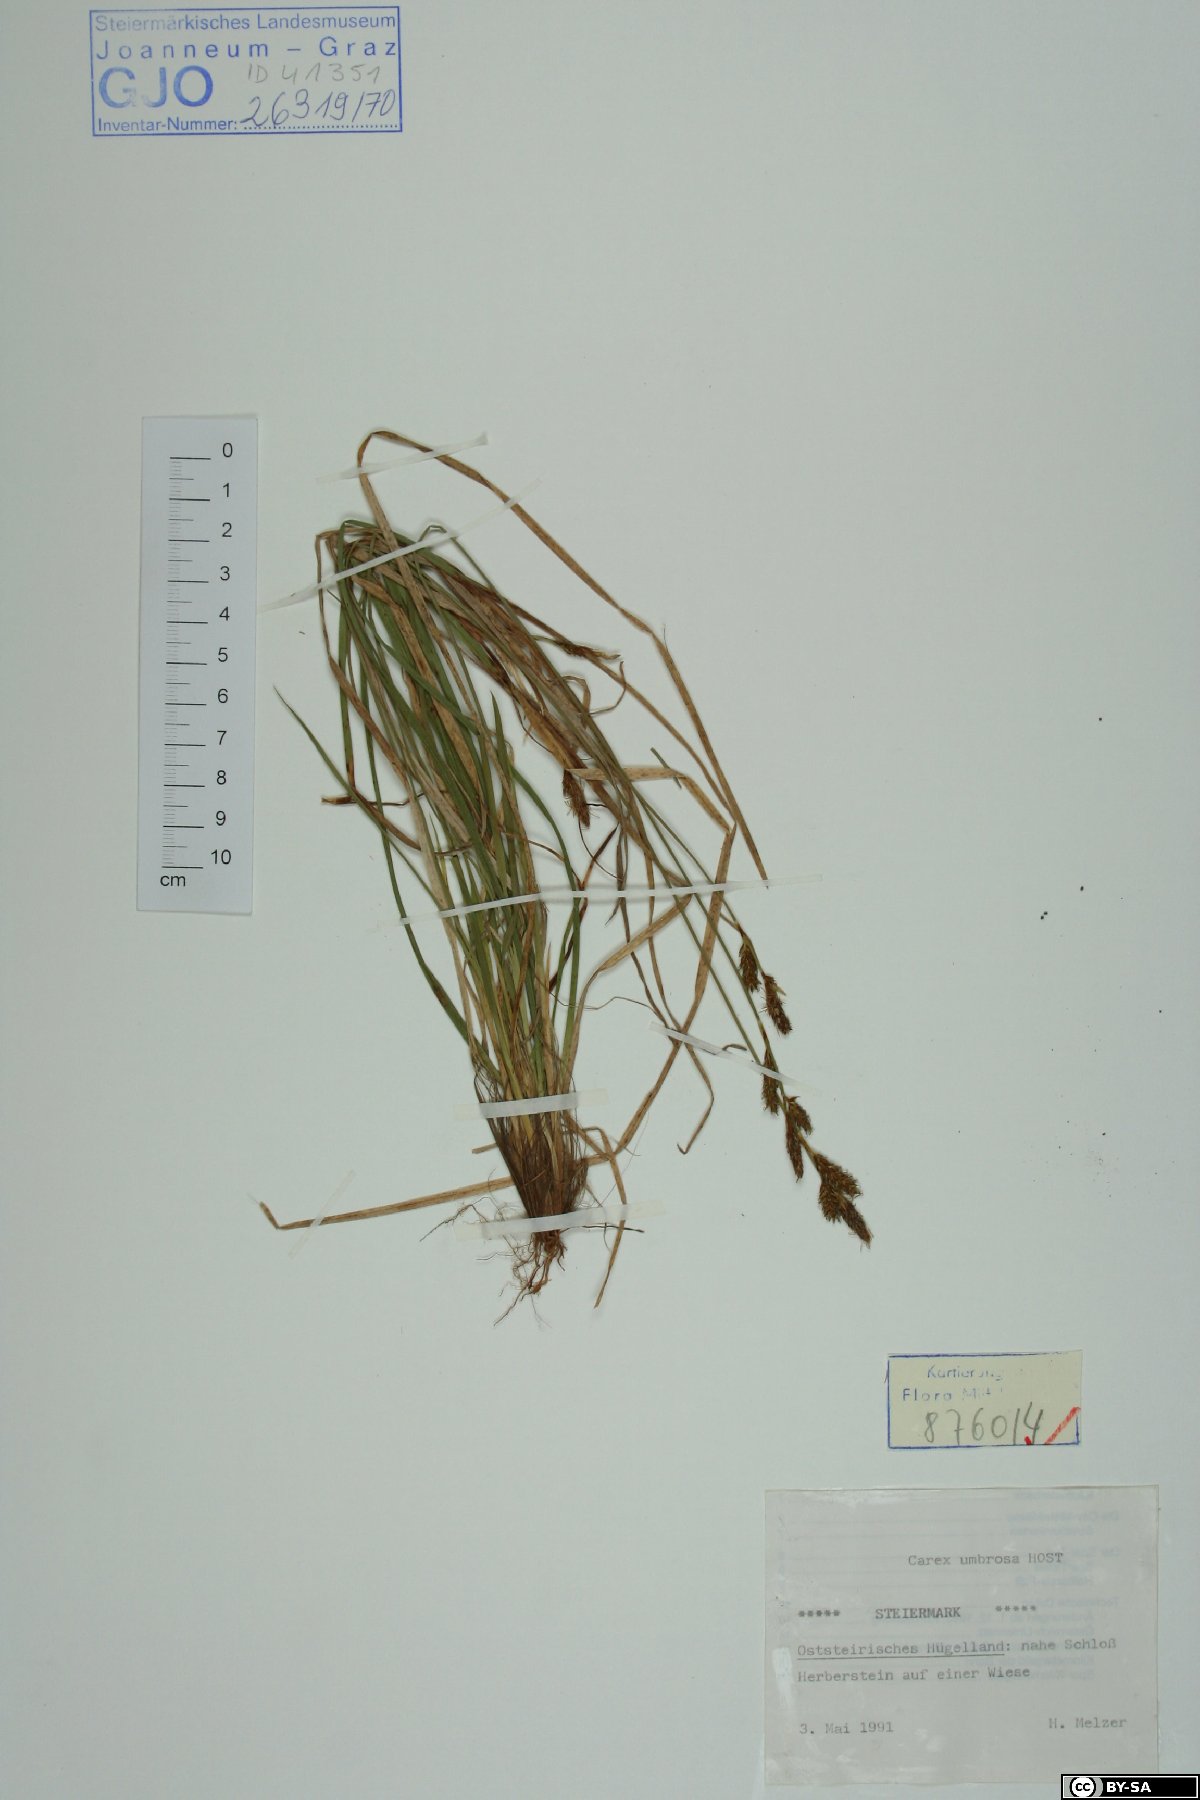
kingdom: Plantae
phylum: Tracheophyta
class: Liliopsida
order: Poales
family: Cyperaceae
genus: Carex
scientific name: Carex umbrosa
